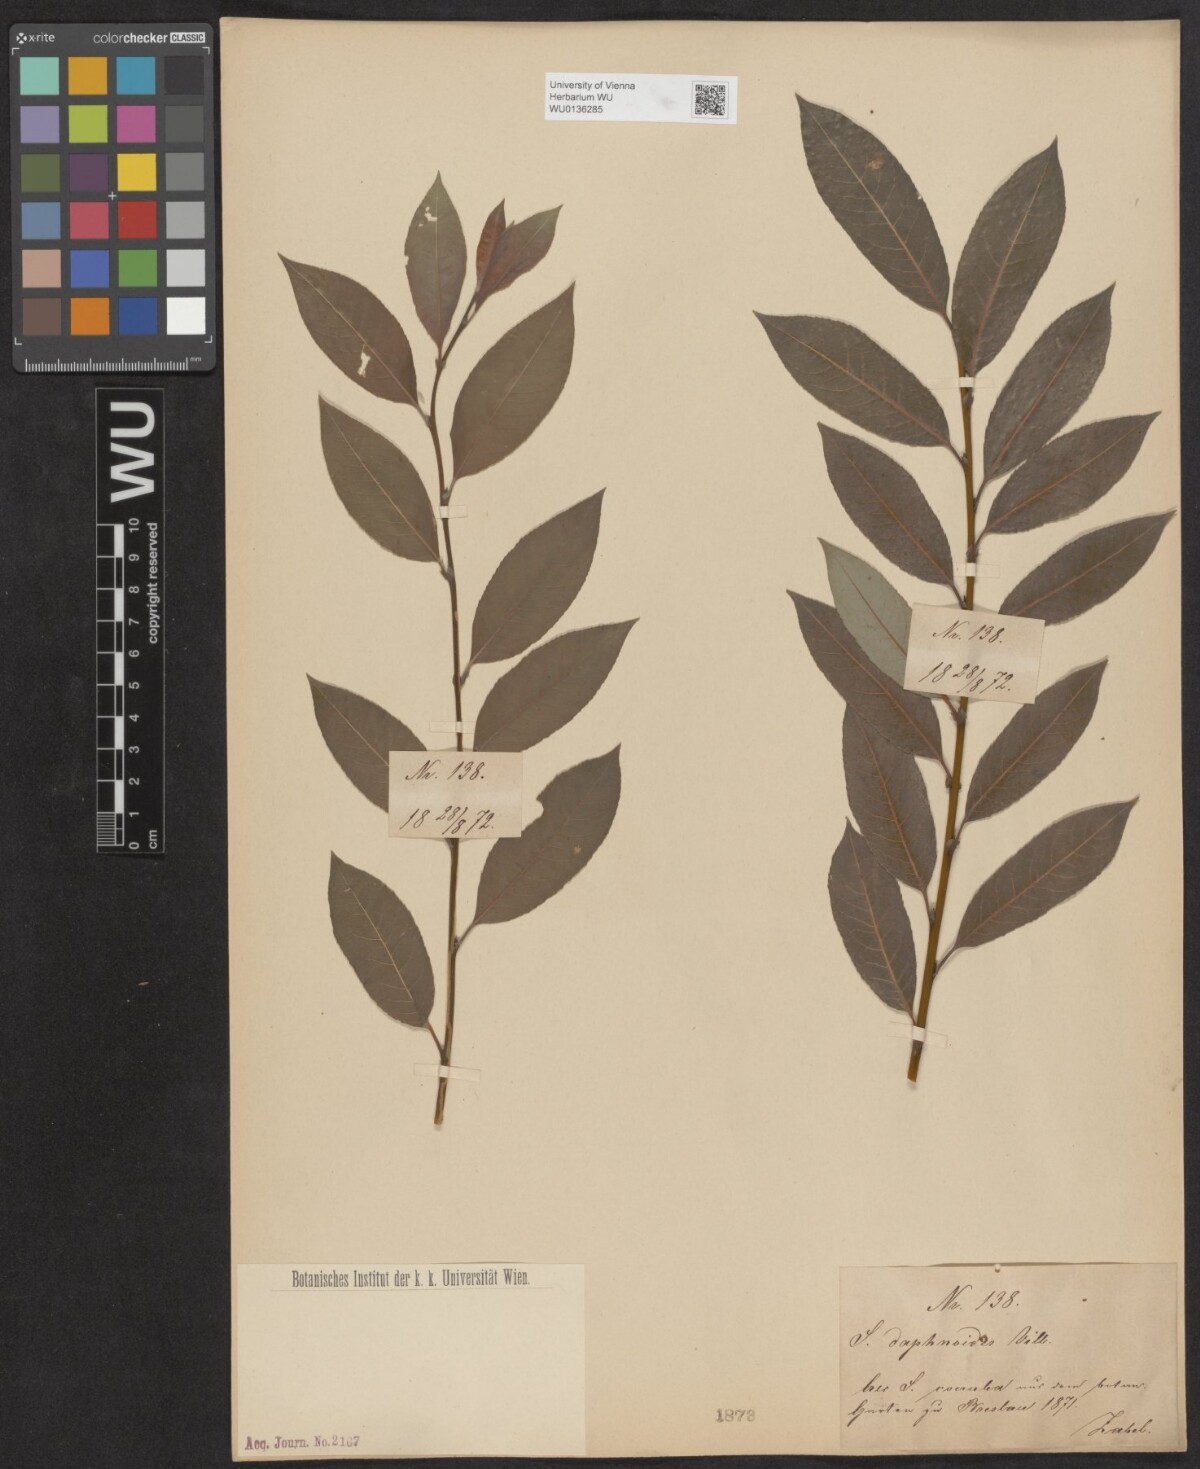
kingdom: Plantae
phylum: Tracheophyta
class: Magnoliopsida
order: Malpighiales
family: Salicaceae
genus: Salix
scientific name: Salix daphnoides
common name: European violet-willow
